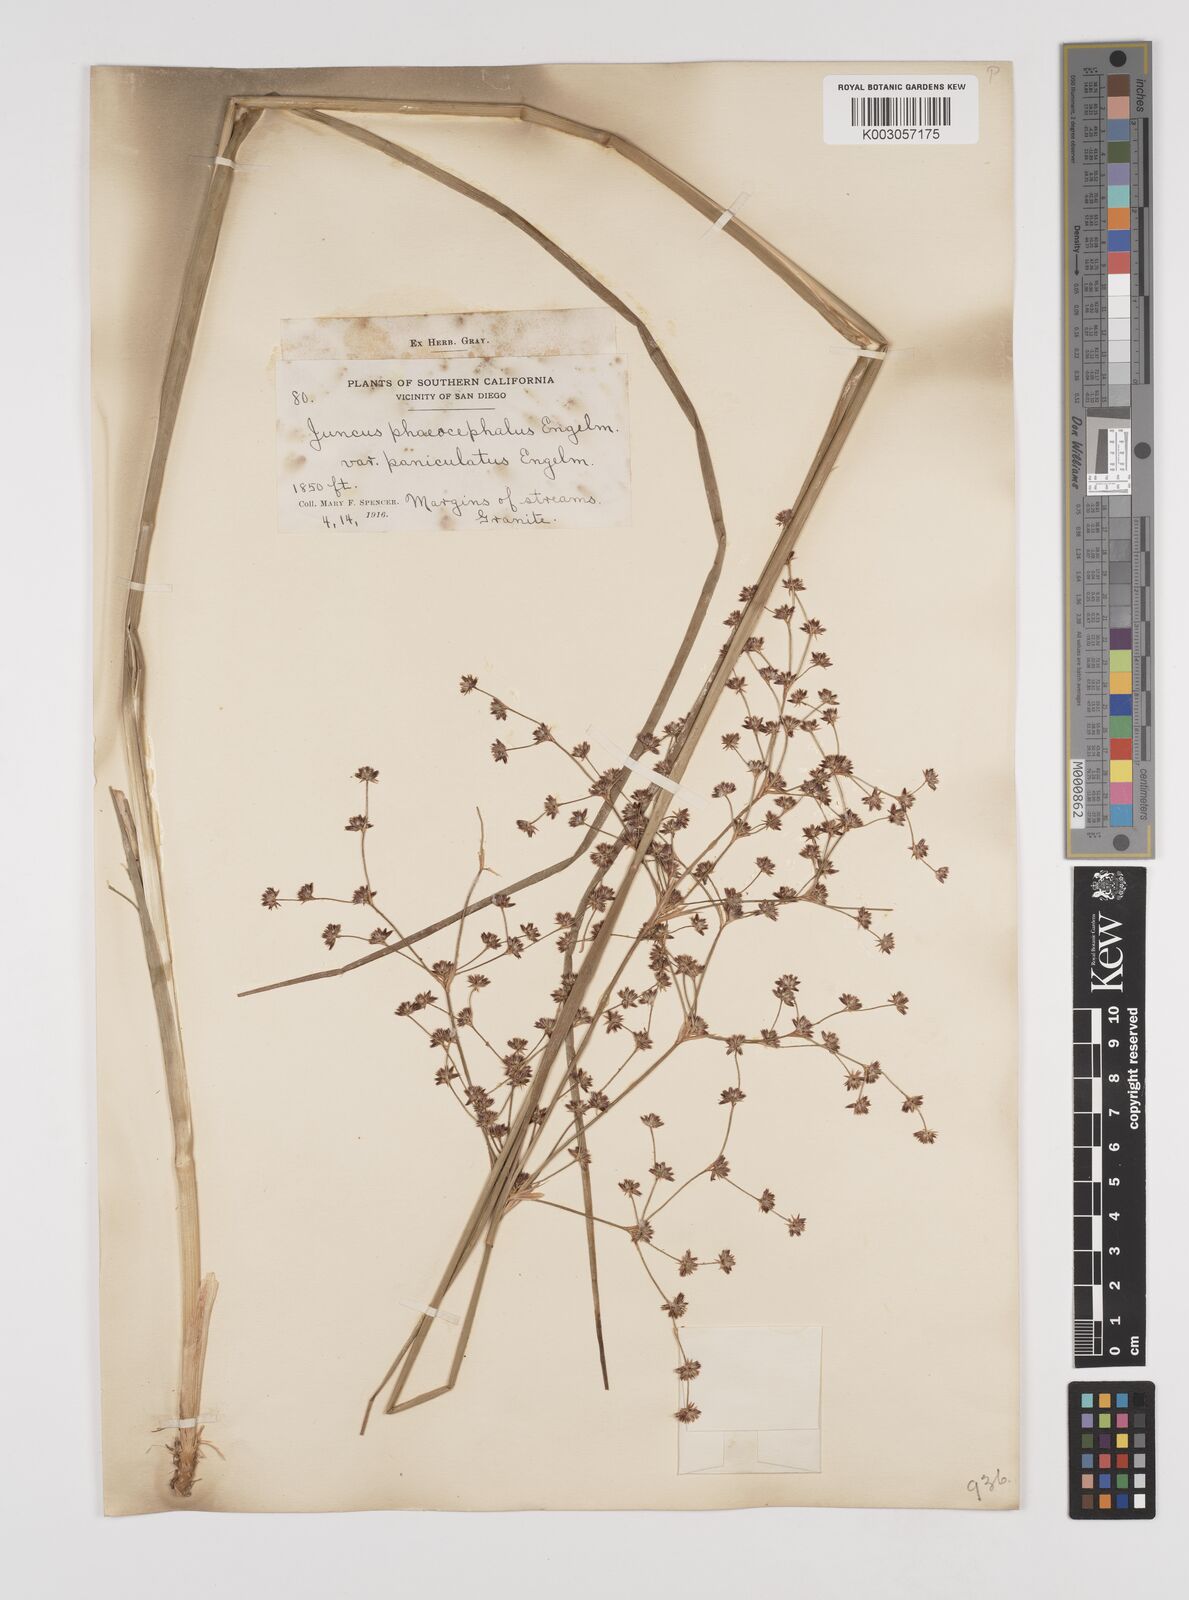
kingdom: Plantae
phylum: Tracheophyta
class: Liliopsida
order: Poales
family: Juncaceae
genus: Juncus
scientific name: Juncus phaeocephalus
